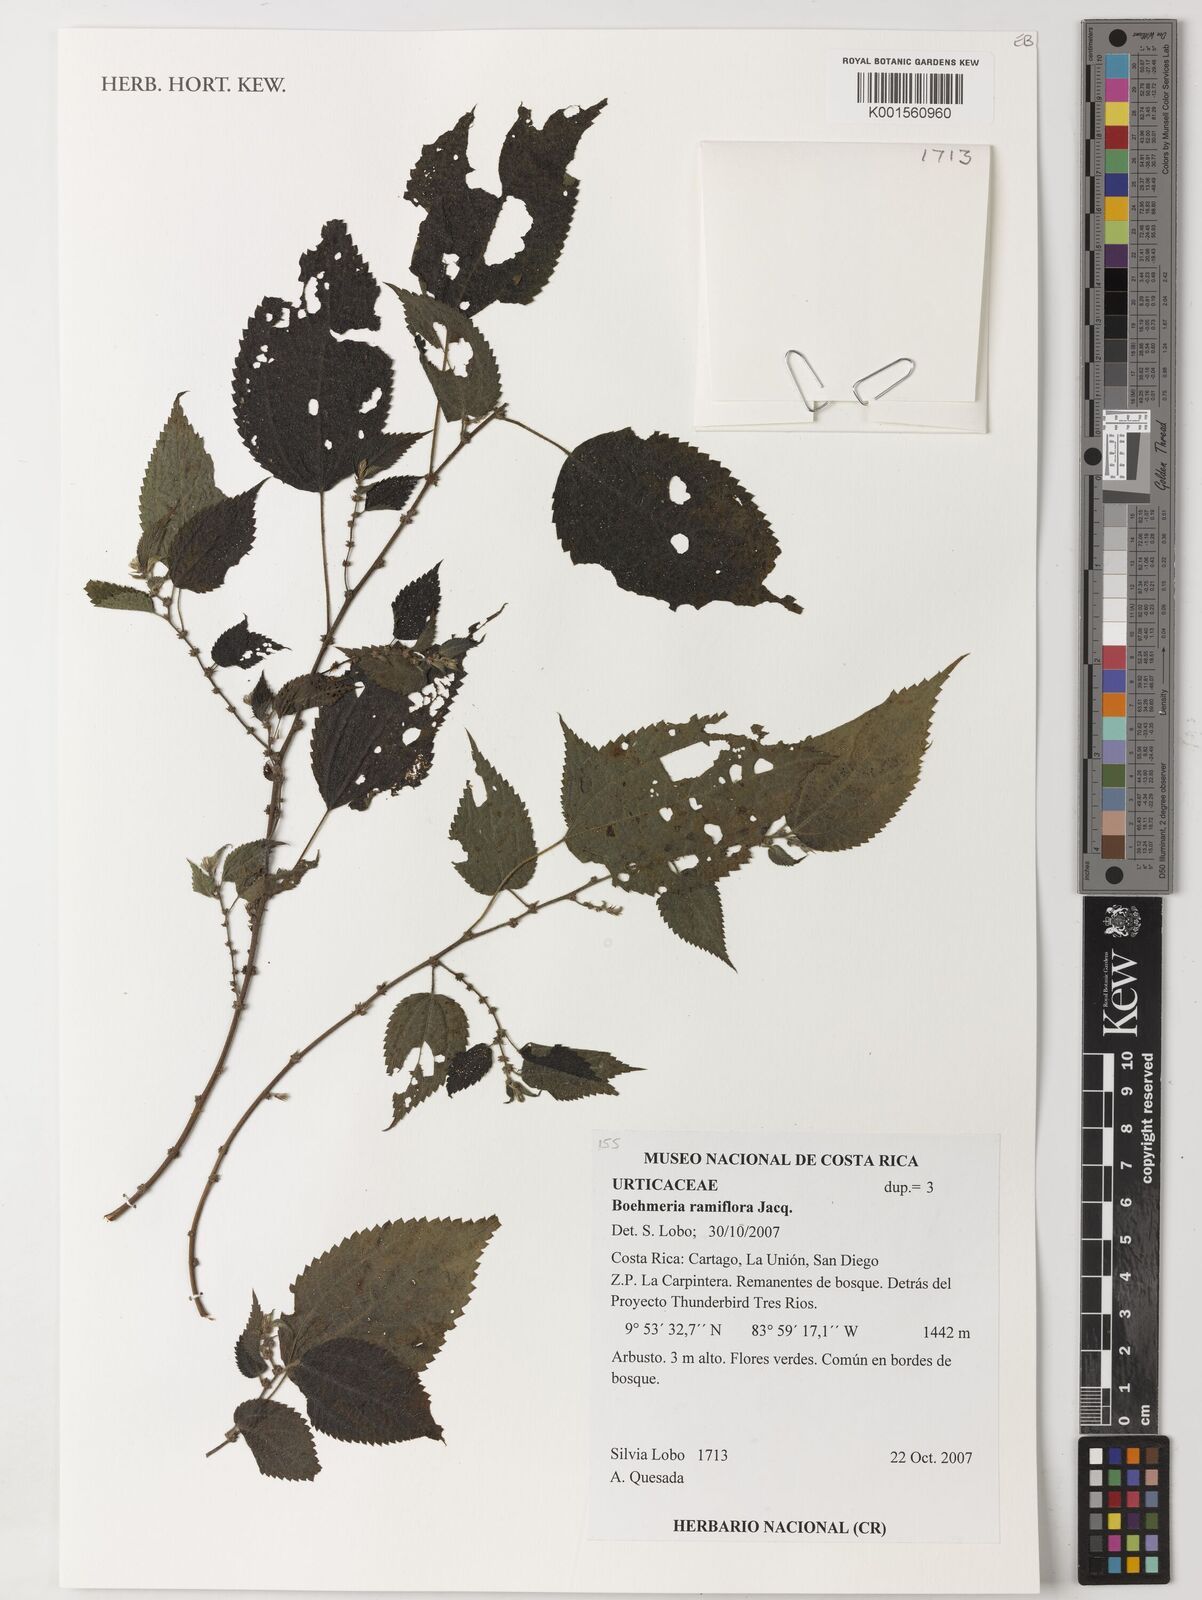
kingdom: Plantae
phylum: Tracheophyta
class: Magnoliopsida
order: Rosales
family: Urticaceae
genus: Boehmeria
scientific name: Boehmeria ramiflora
